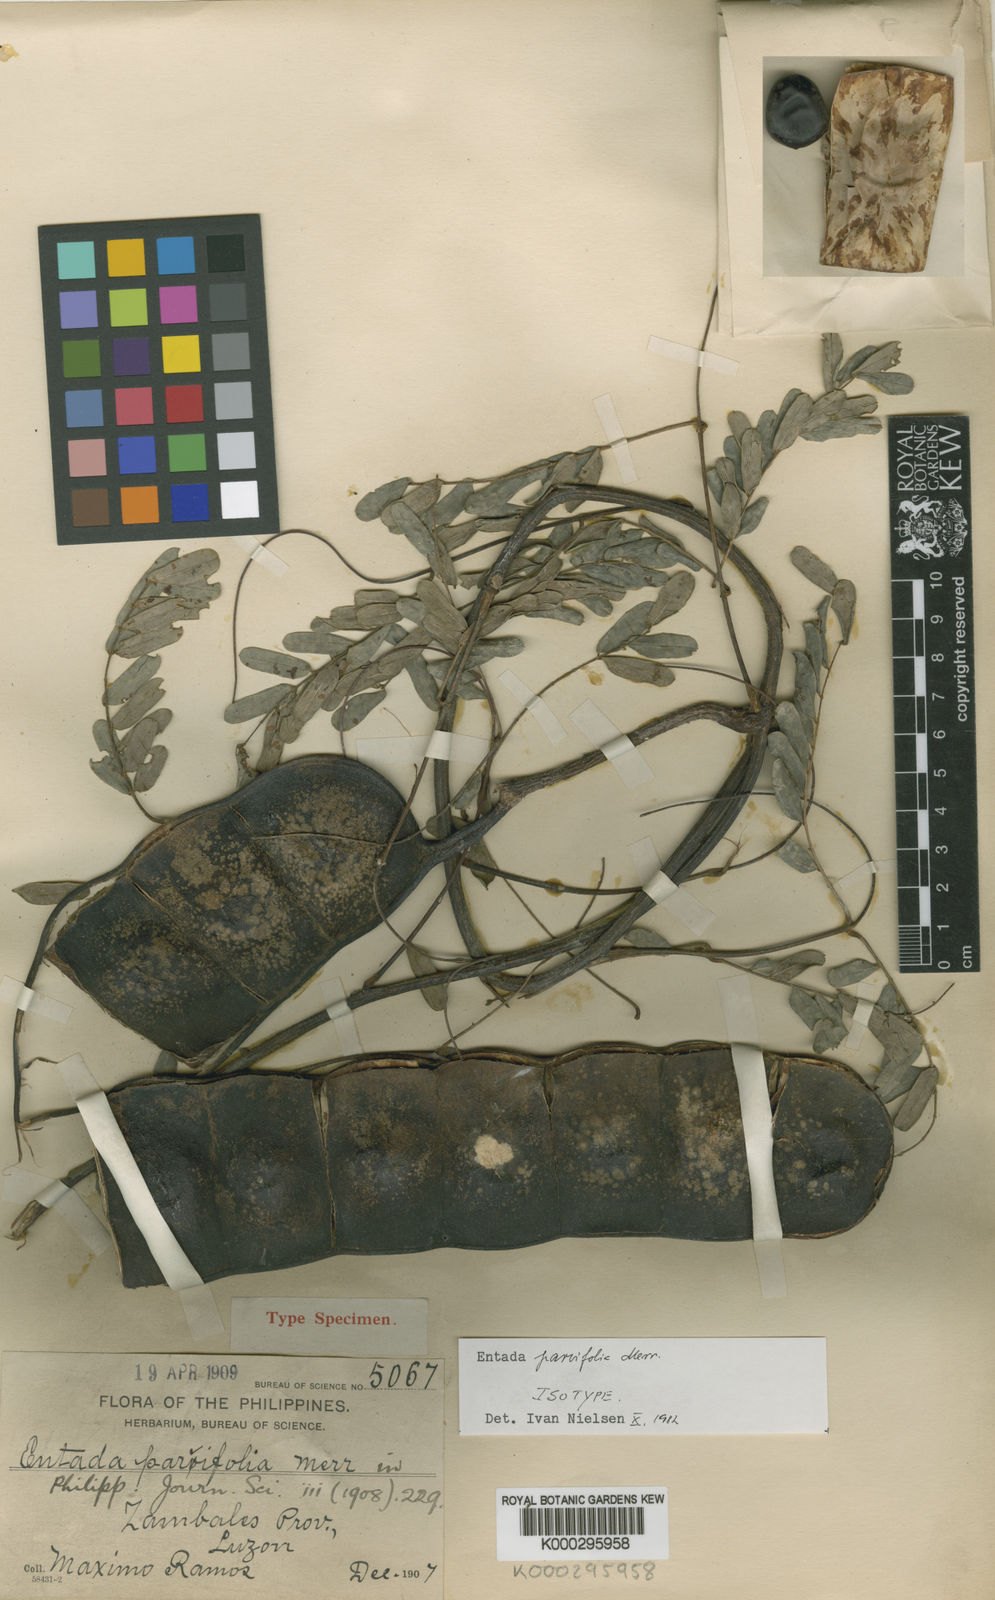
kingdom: Plantae
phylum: Tracheophyta
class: Magnoliopsida
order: Fabales
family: Fabaceae
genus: Entada
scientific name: Entada parvifolia
